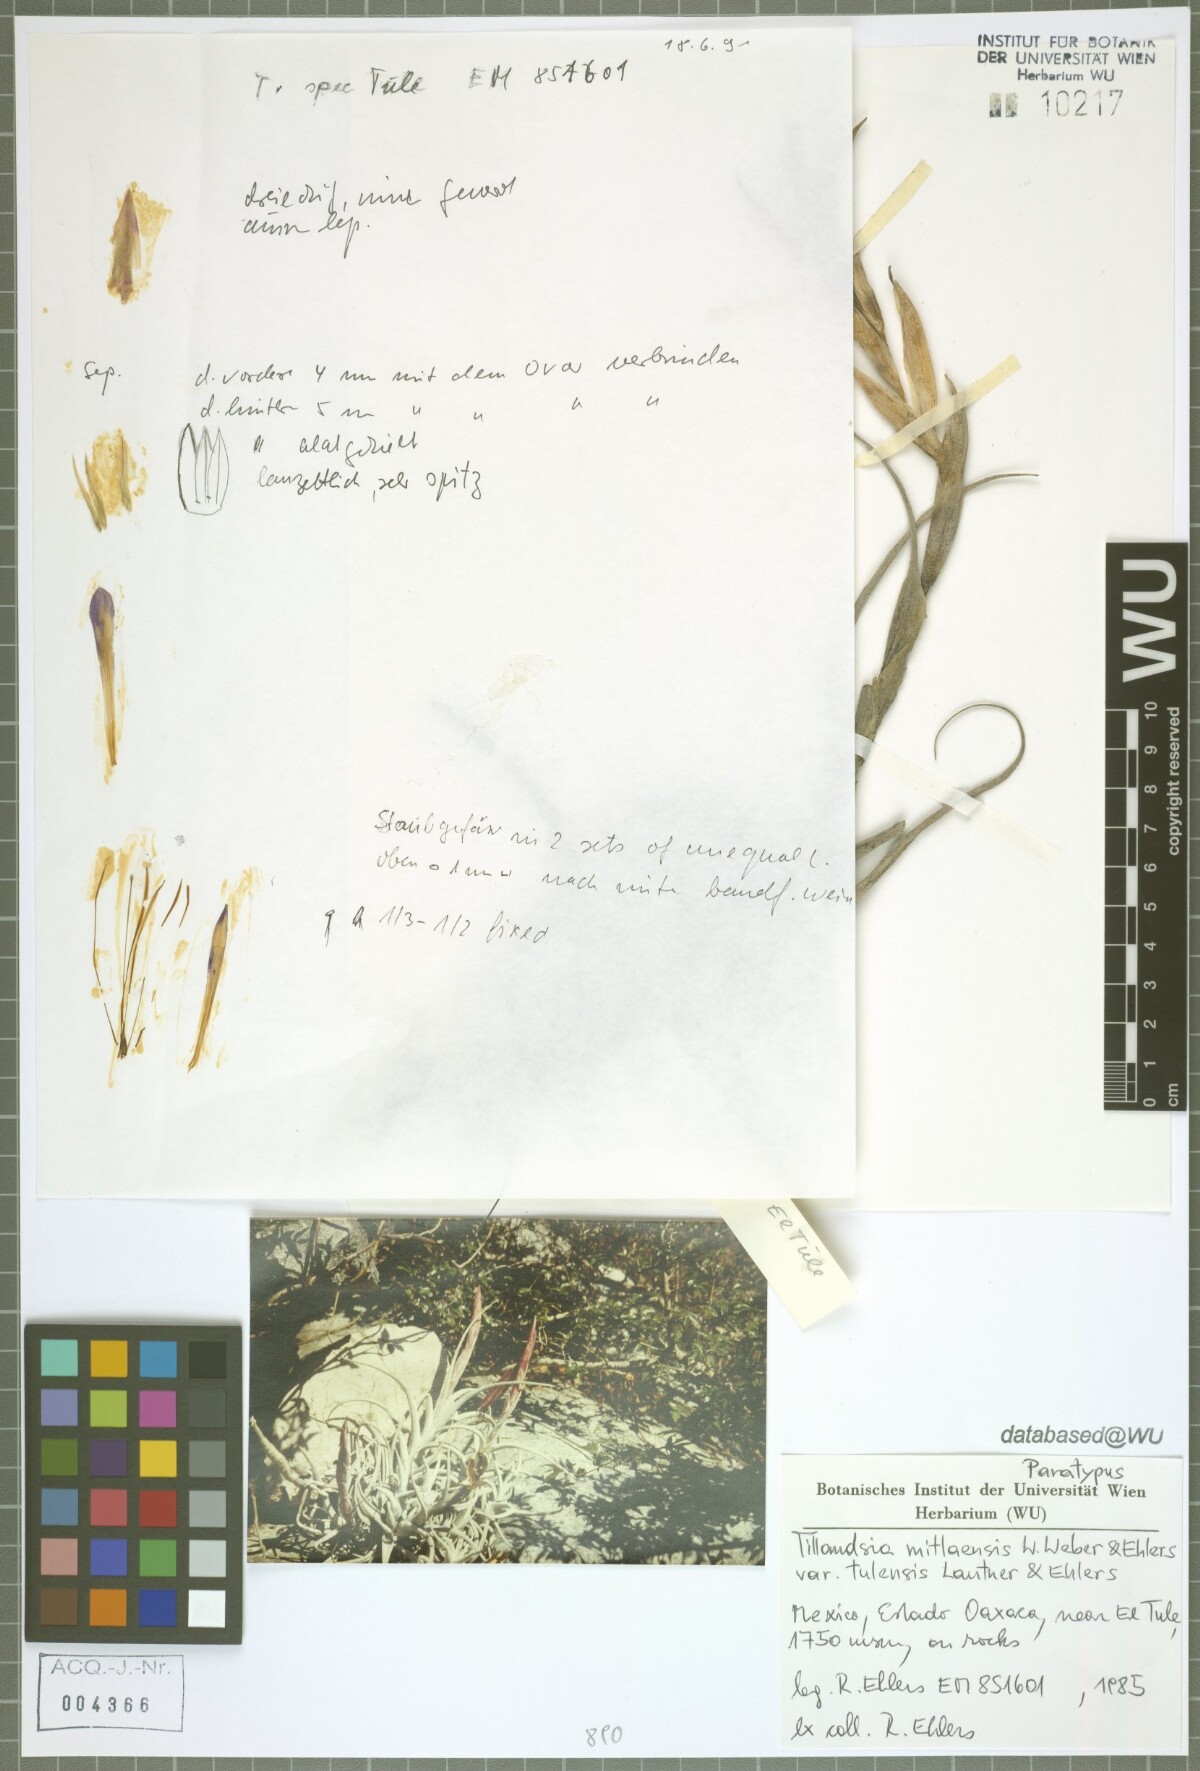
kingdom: Plantae
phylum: Tracheophyta
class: Liliopsida
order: Poales
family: Bromeliaceae
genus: Tillandsia
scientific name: Tillandsia mitlaensis
